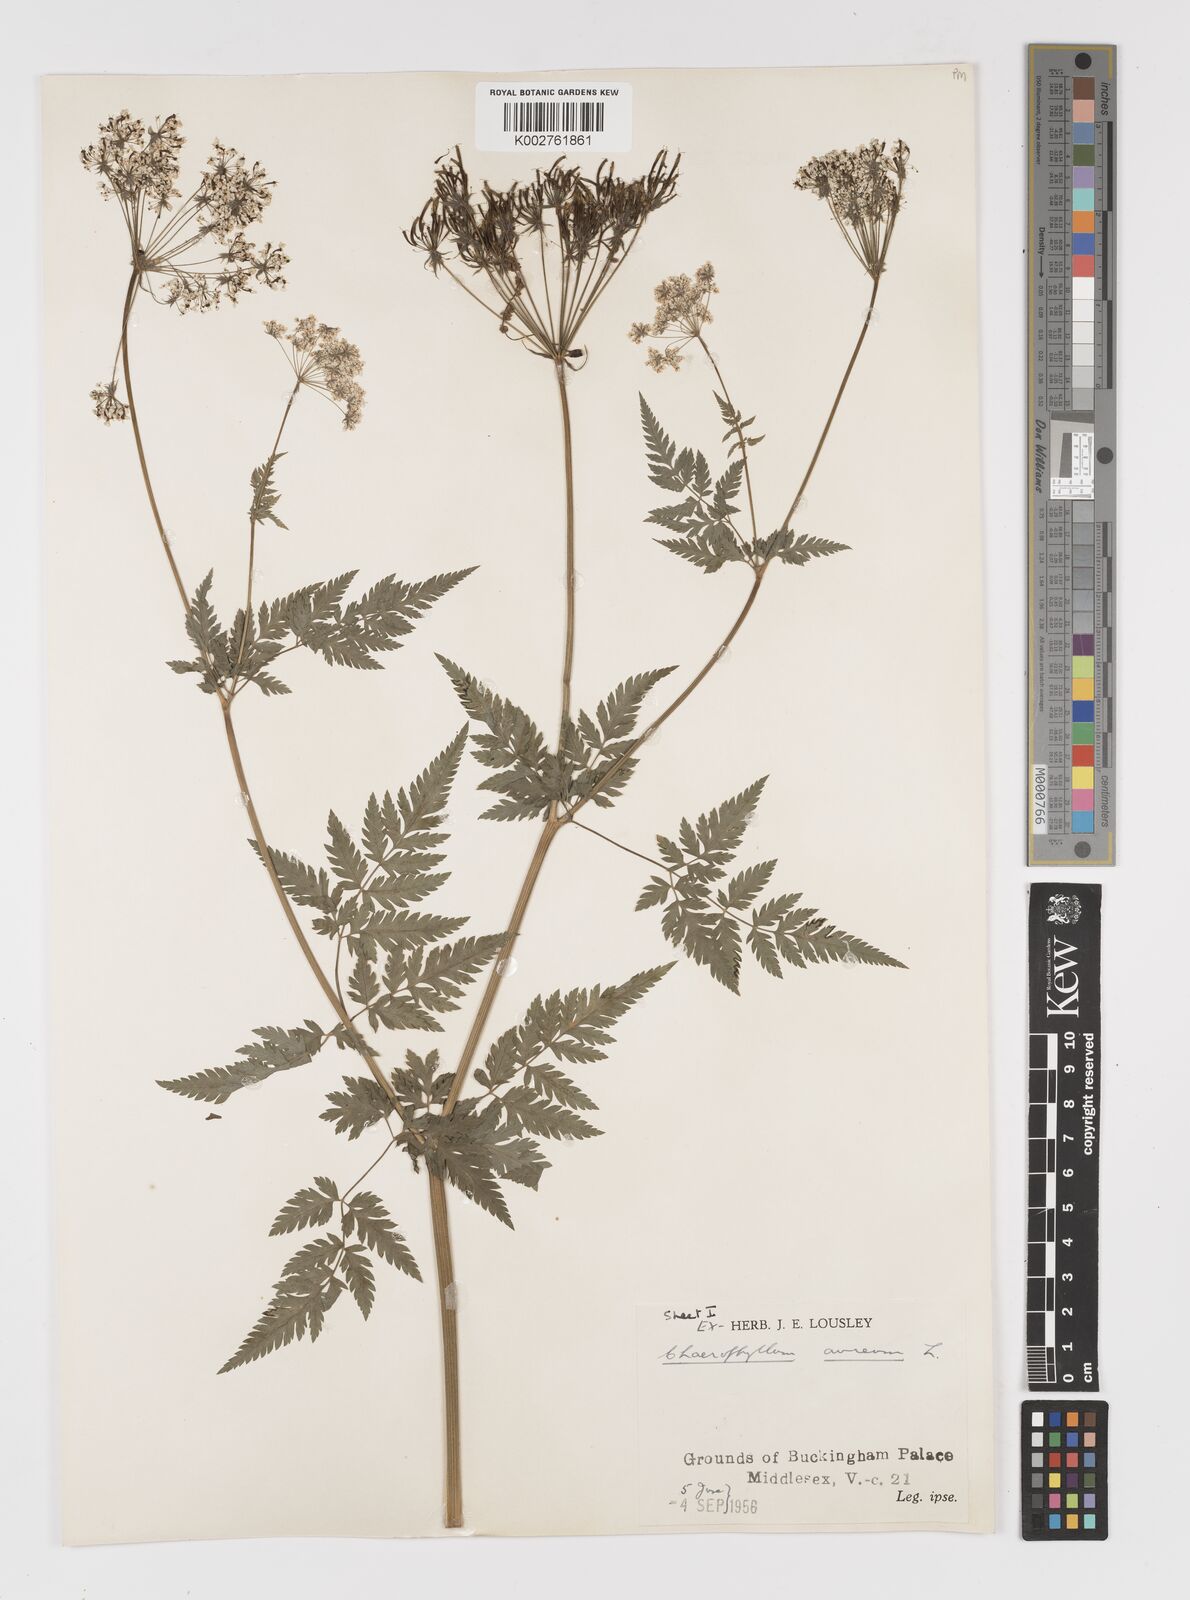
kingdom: Plantae
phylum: Tracheophyta
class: Magnoliopsida
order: Apiales
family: Apiaceae
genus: Chaerophyllum
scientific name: Chaerophyllum aureum
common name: Golden chervil
